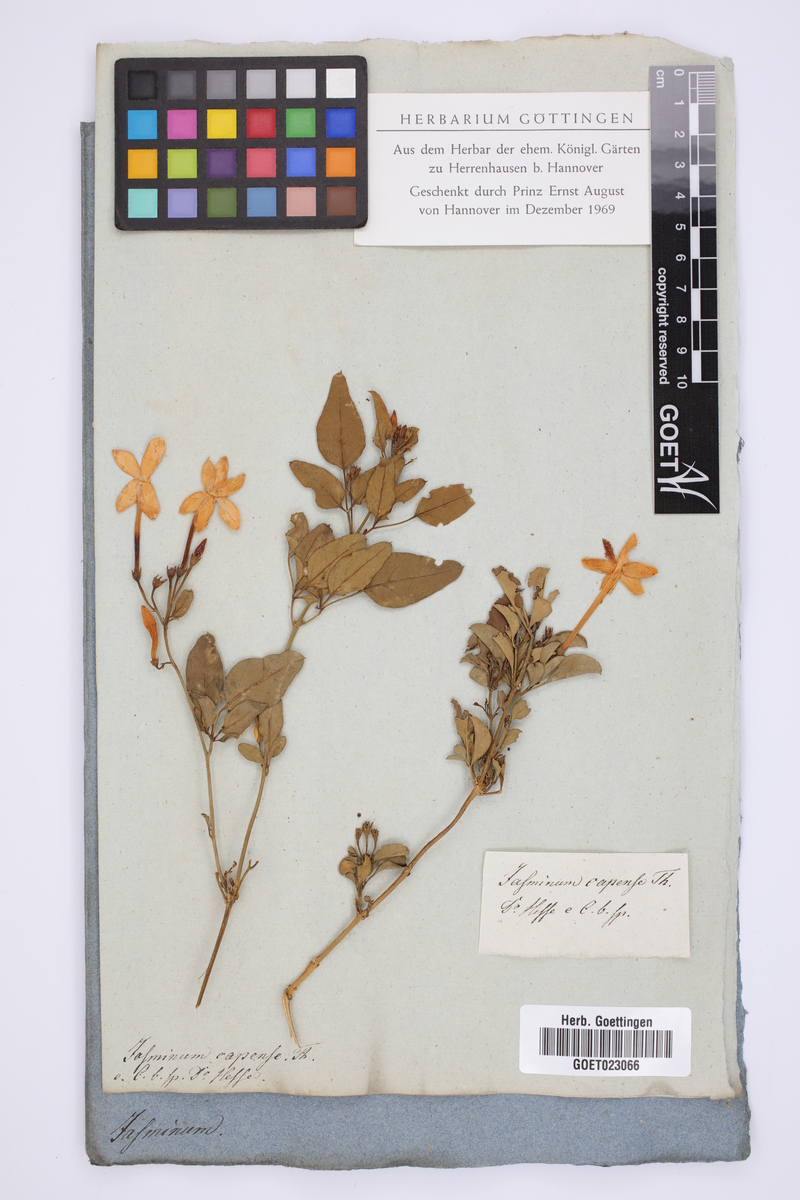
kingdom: Plantae
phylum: Tracheophyta
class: Magnoliopsida
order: Lamiales
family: Oleaceae
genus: Jasminum
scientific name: Jasminum angulare
